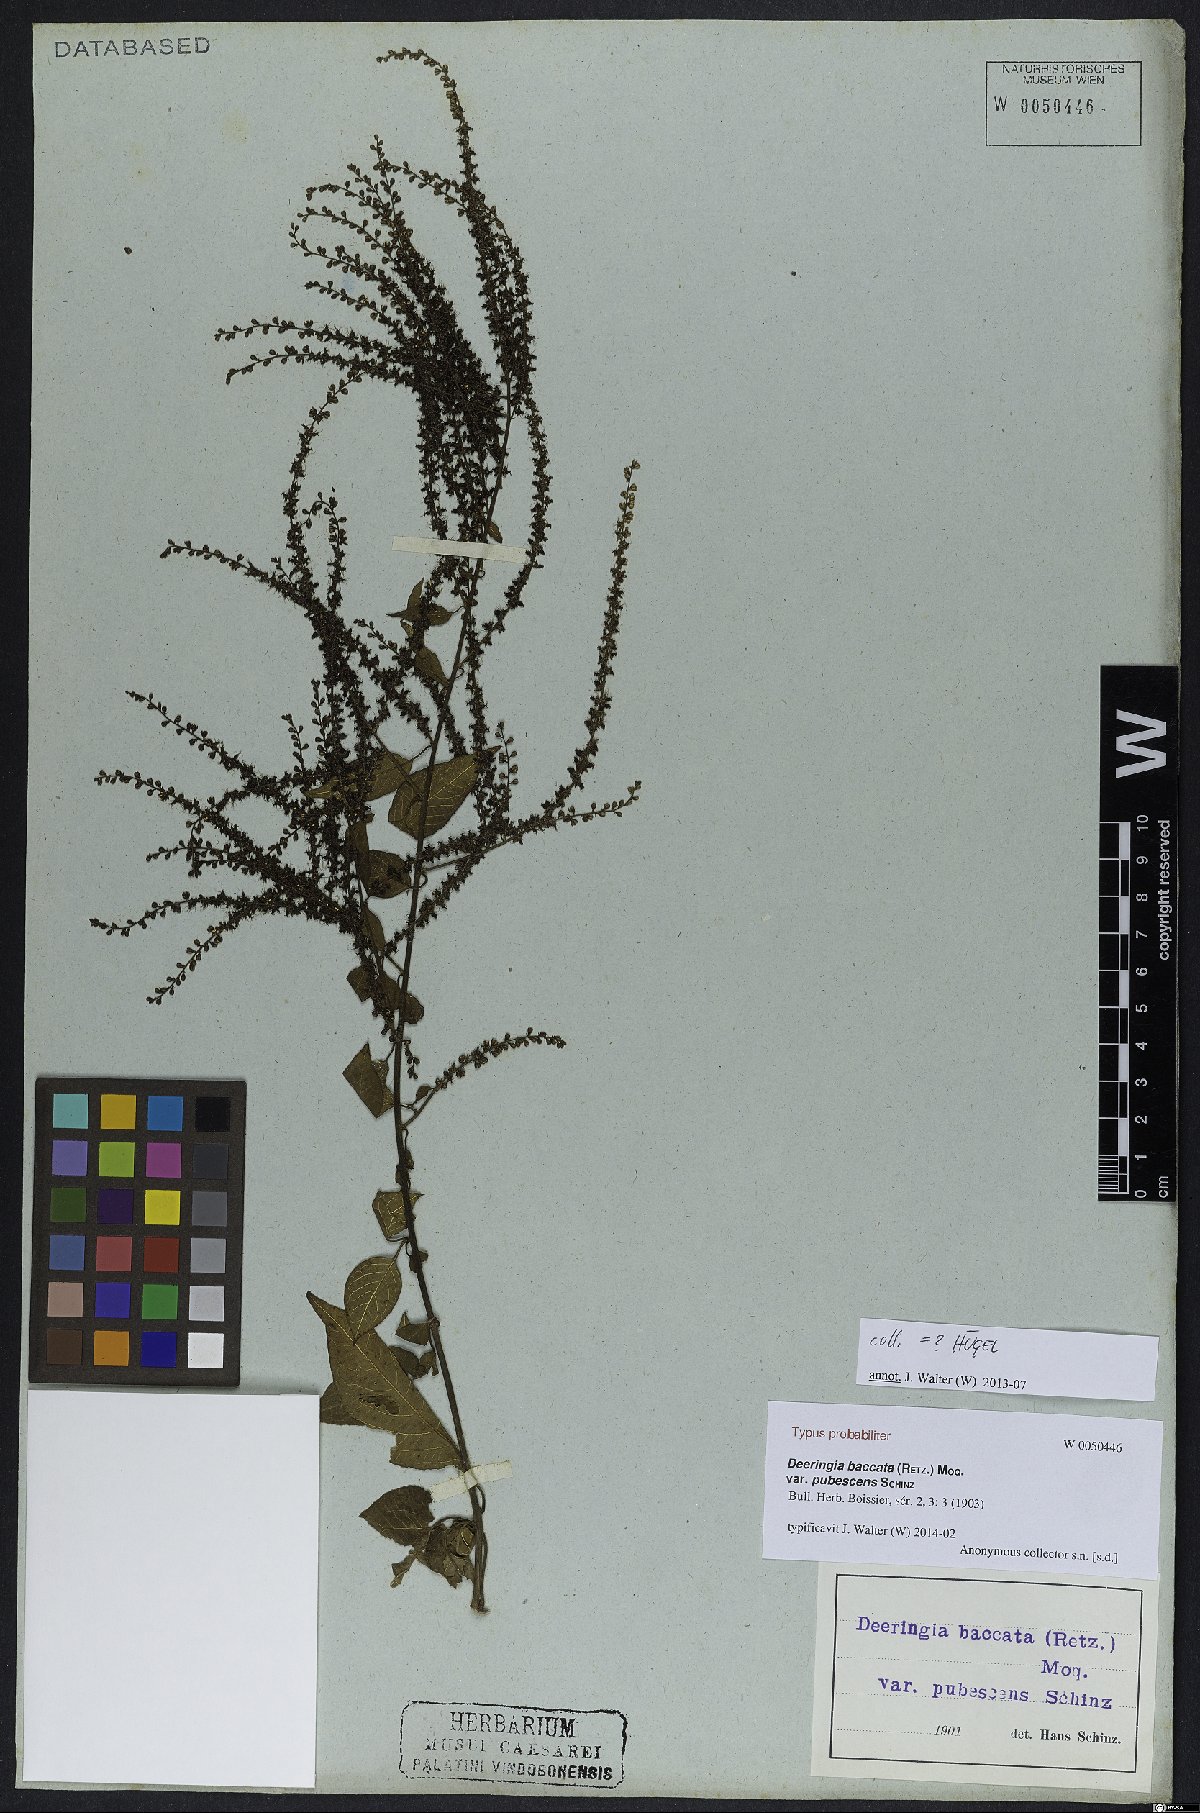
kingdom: Plantae
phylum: Tracheophyta
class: Magnoliopsida
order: Caryophyllales
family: Amaranthaceae
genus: Deeringia
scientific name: Deeringia amaranthoides
